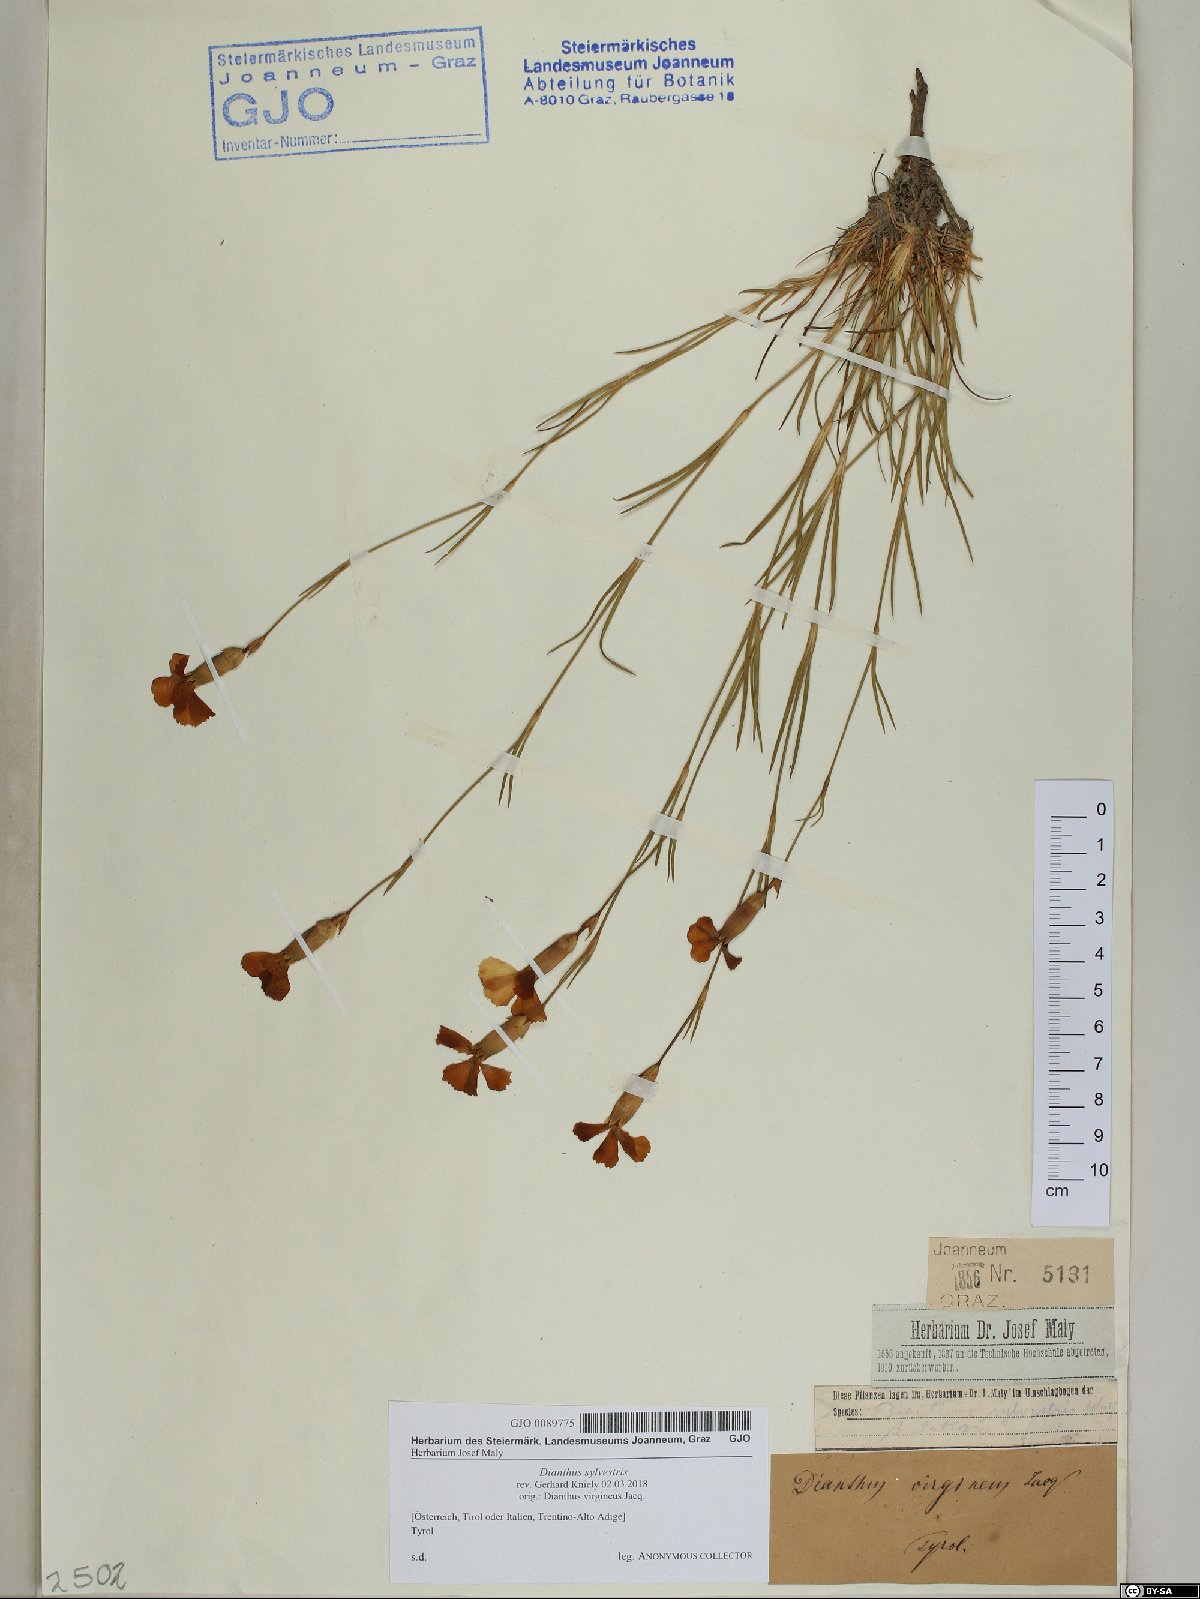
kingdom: Plantae
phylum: Tracheophyta
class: Magnoliopsida
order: Caryophyllales
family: Caryophyllaceae
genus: Dianthus
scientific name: Dianthus sylvestris
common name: Wood pink
